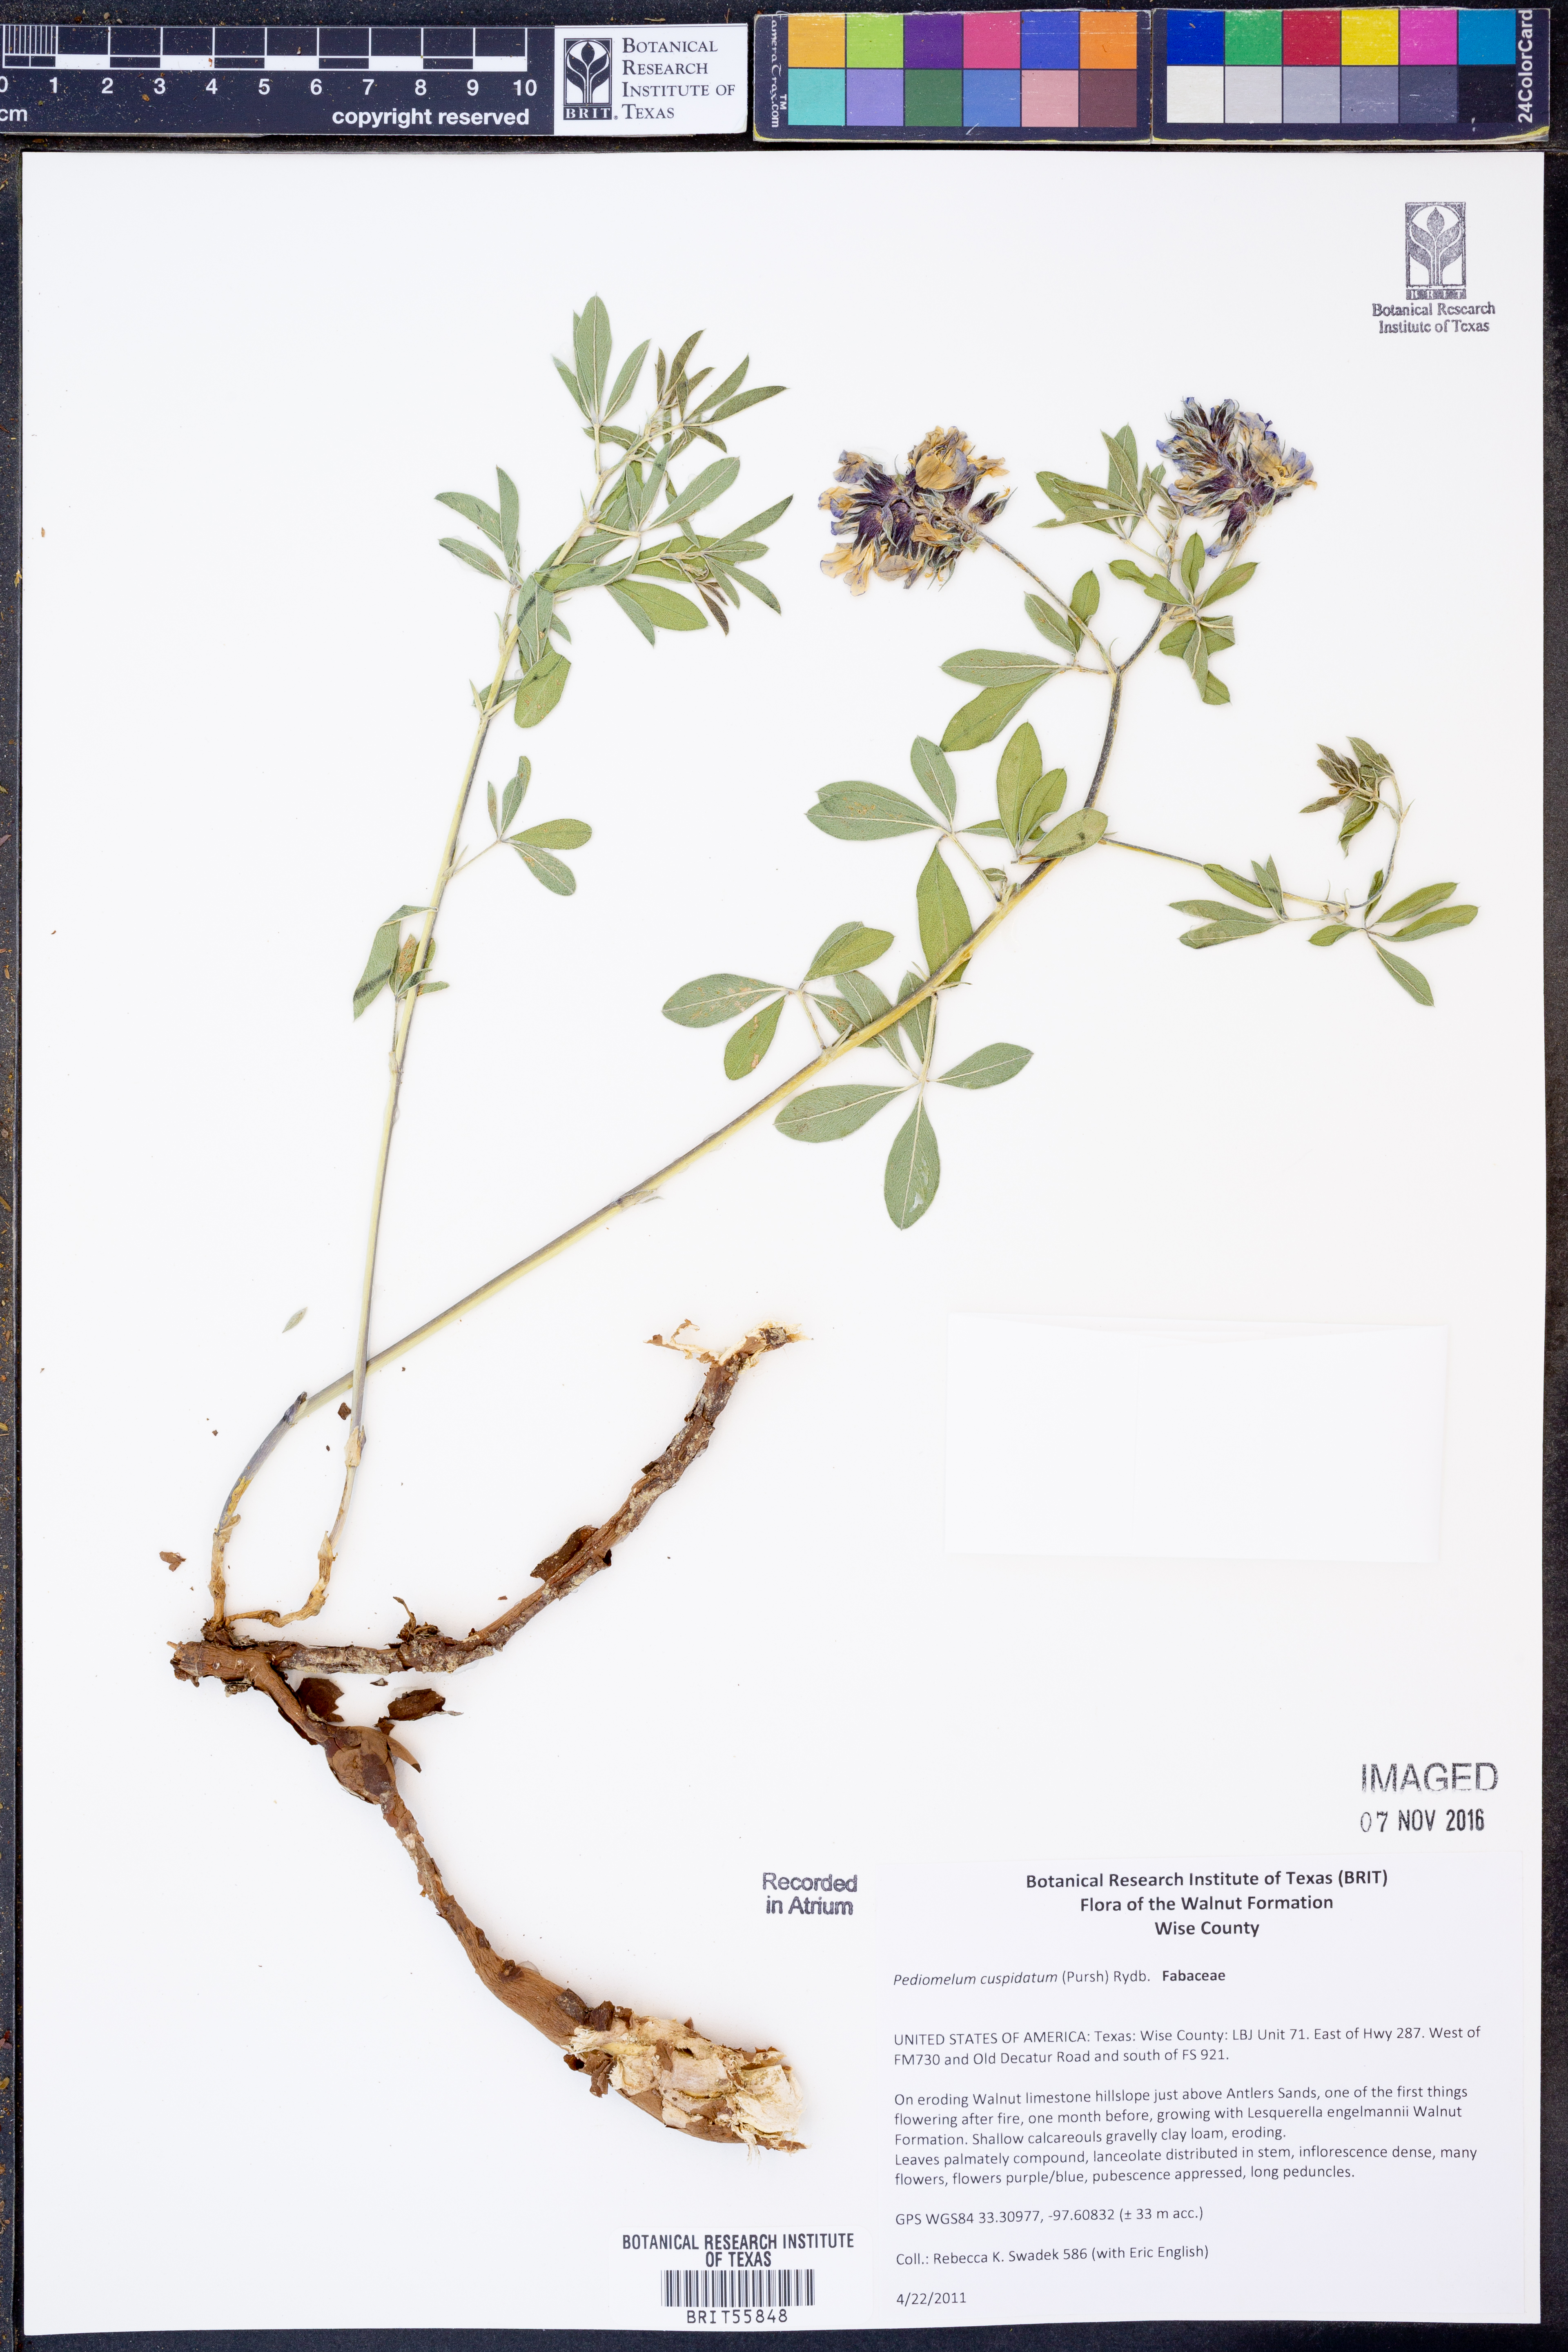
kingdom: Plantae
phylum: Tracheophyta
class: Magnoliopsida
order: Fabales
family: Fabaceae
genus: Pediomelum
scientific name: Pediomelum cuspidatum
